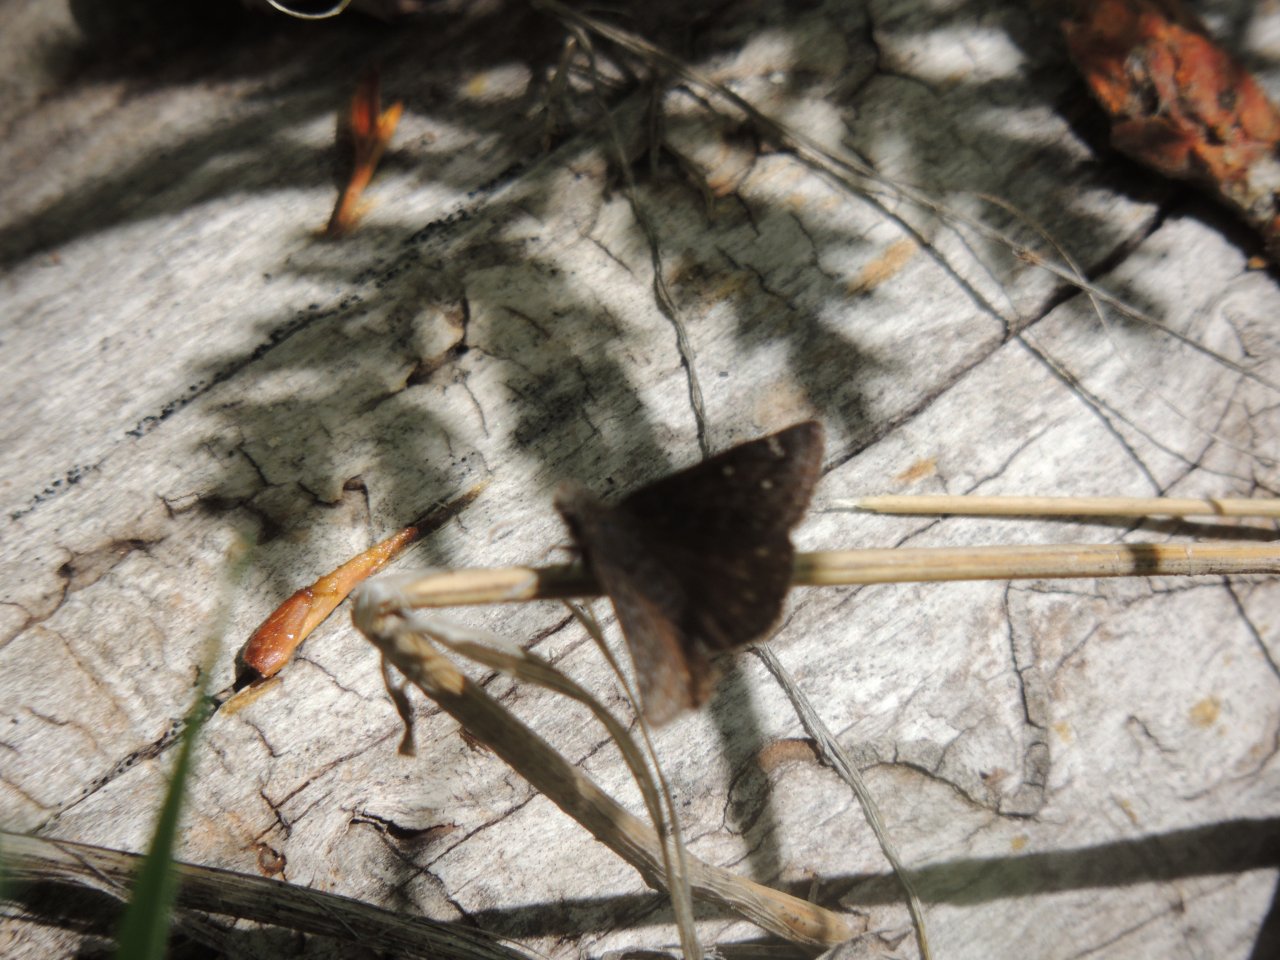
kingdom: Animalia
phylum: Arthropoda
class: Insecta
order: Lepidoptera
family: Hesperiidae
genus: Gesta
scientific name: Gesta
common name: Persius Duskywing
